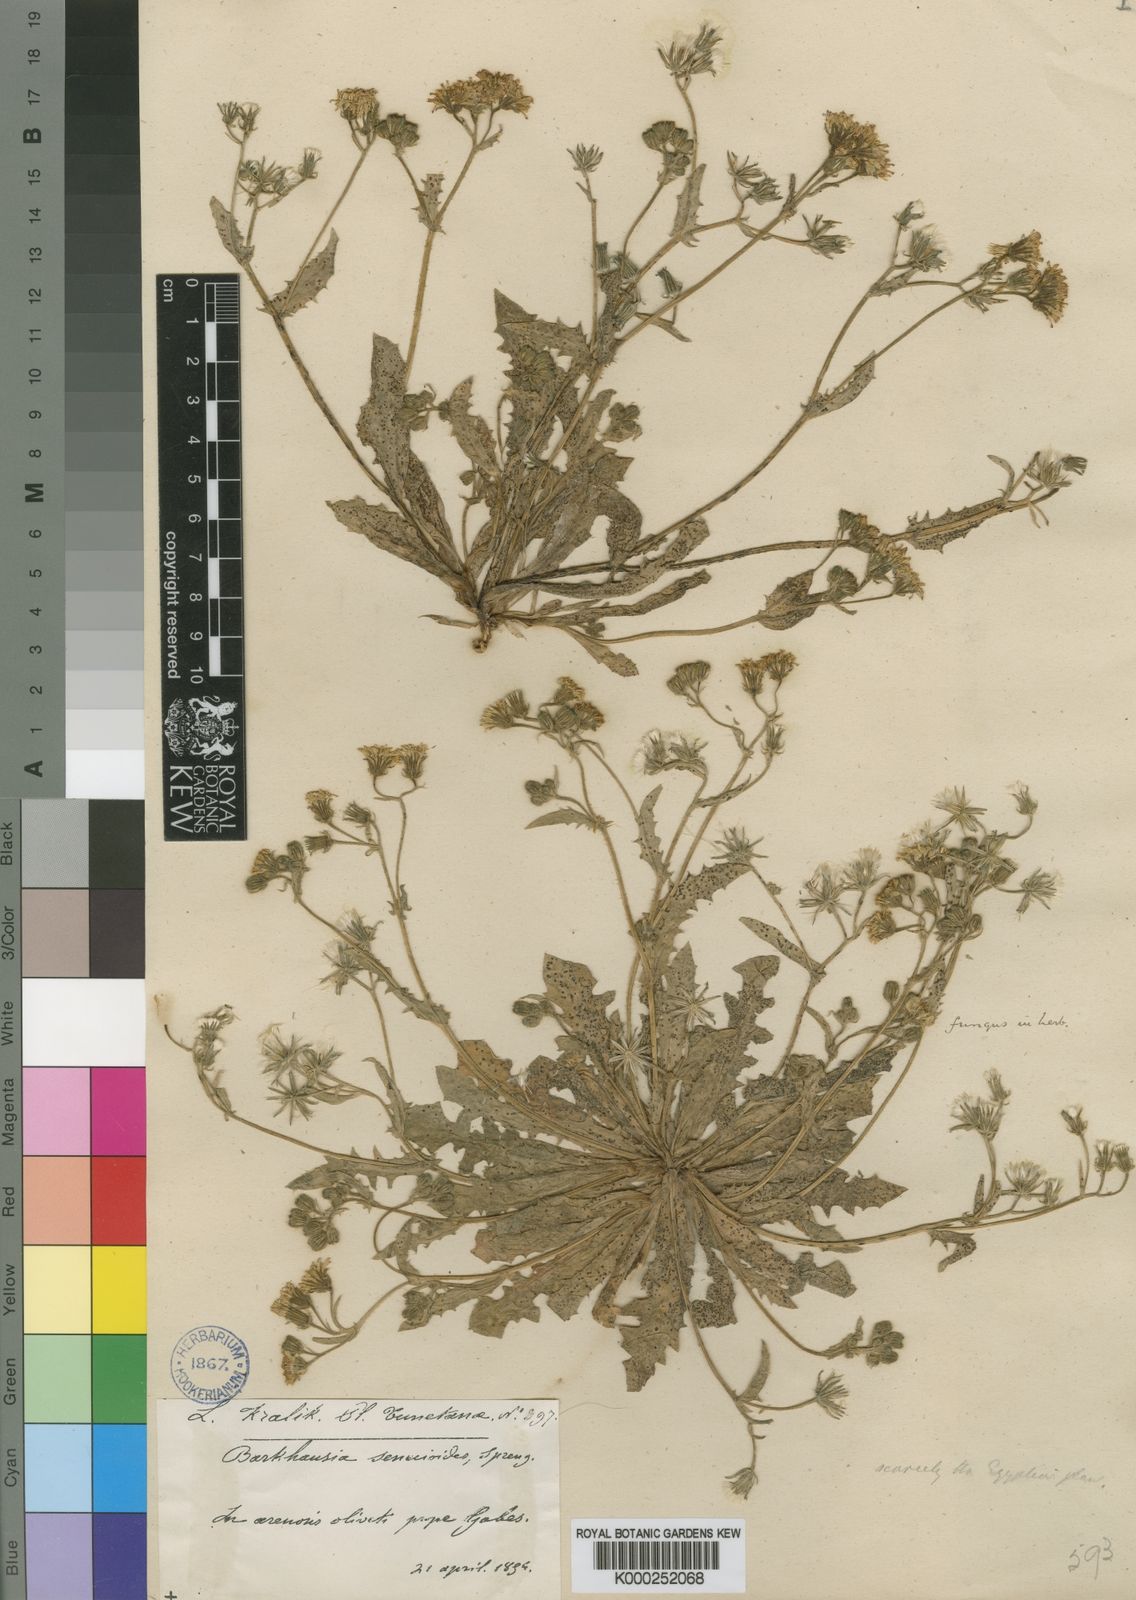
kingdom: Plantae
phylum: Tracheophyta
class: Magnoliopsida
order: Asterales
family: Asteraceae
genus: Crepis
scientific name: Crepis nigricans
